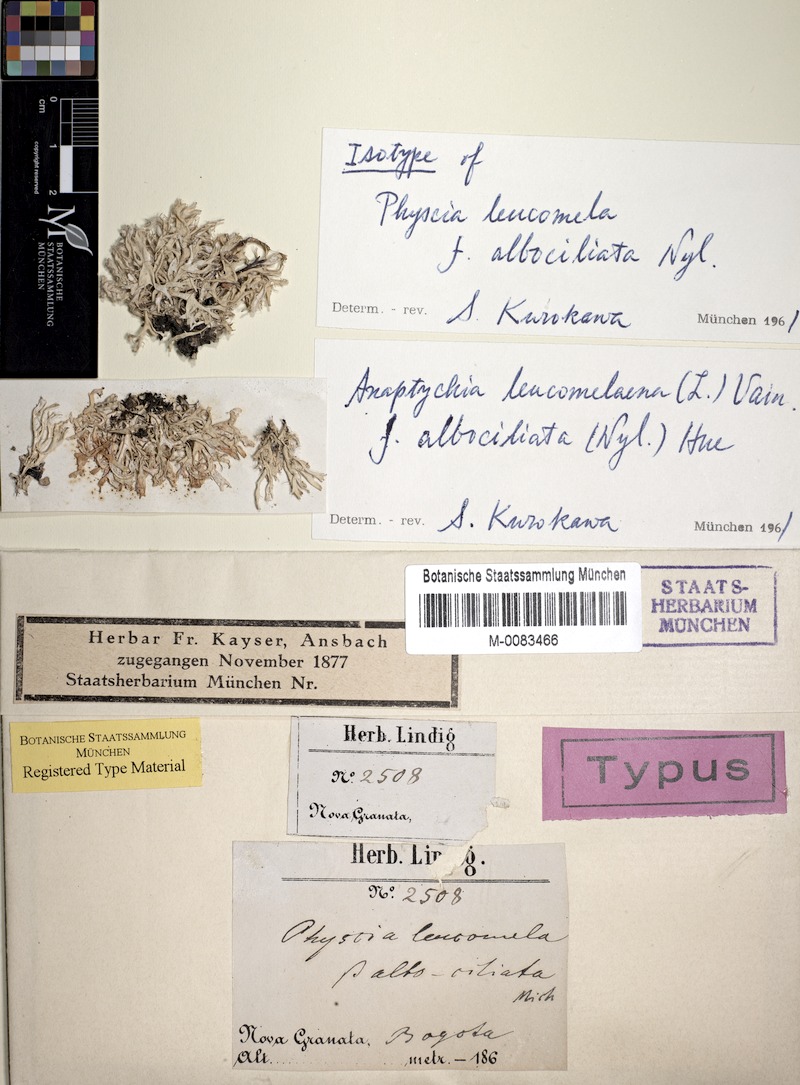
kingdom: Fungi
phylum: Ascomycota
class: Lecanoromycetes
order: Caliciales
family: Physciaceae
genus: Leucodermia
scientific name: Leucodermia leucomelos
